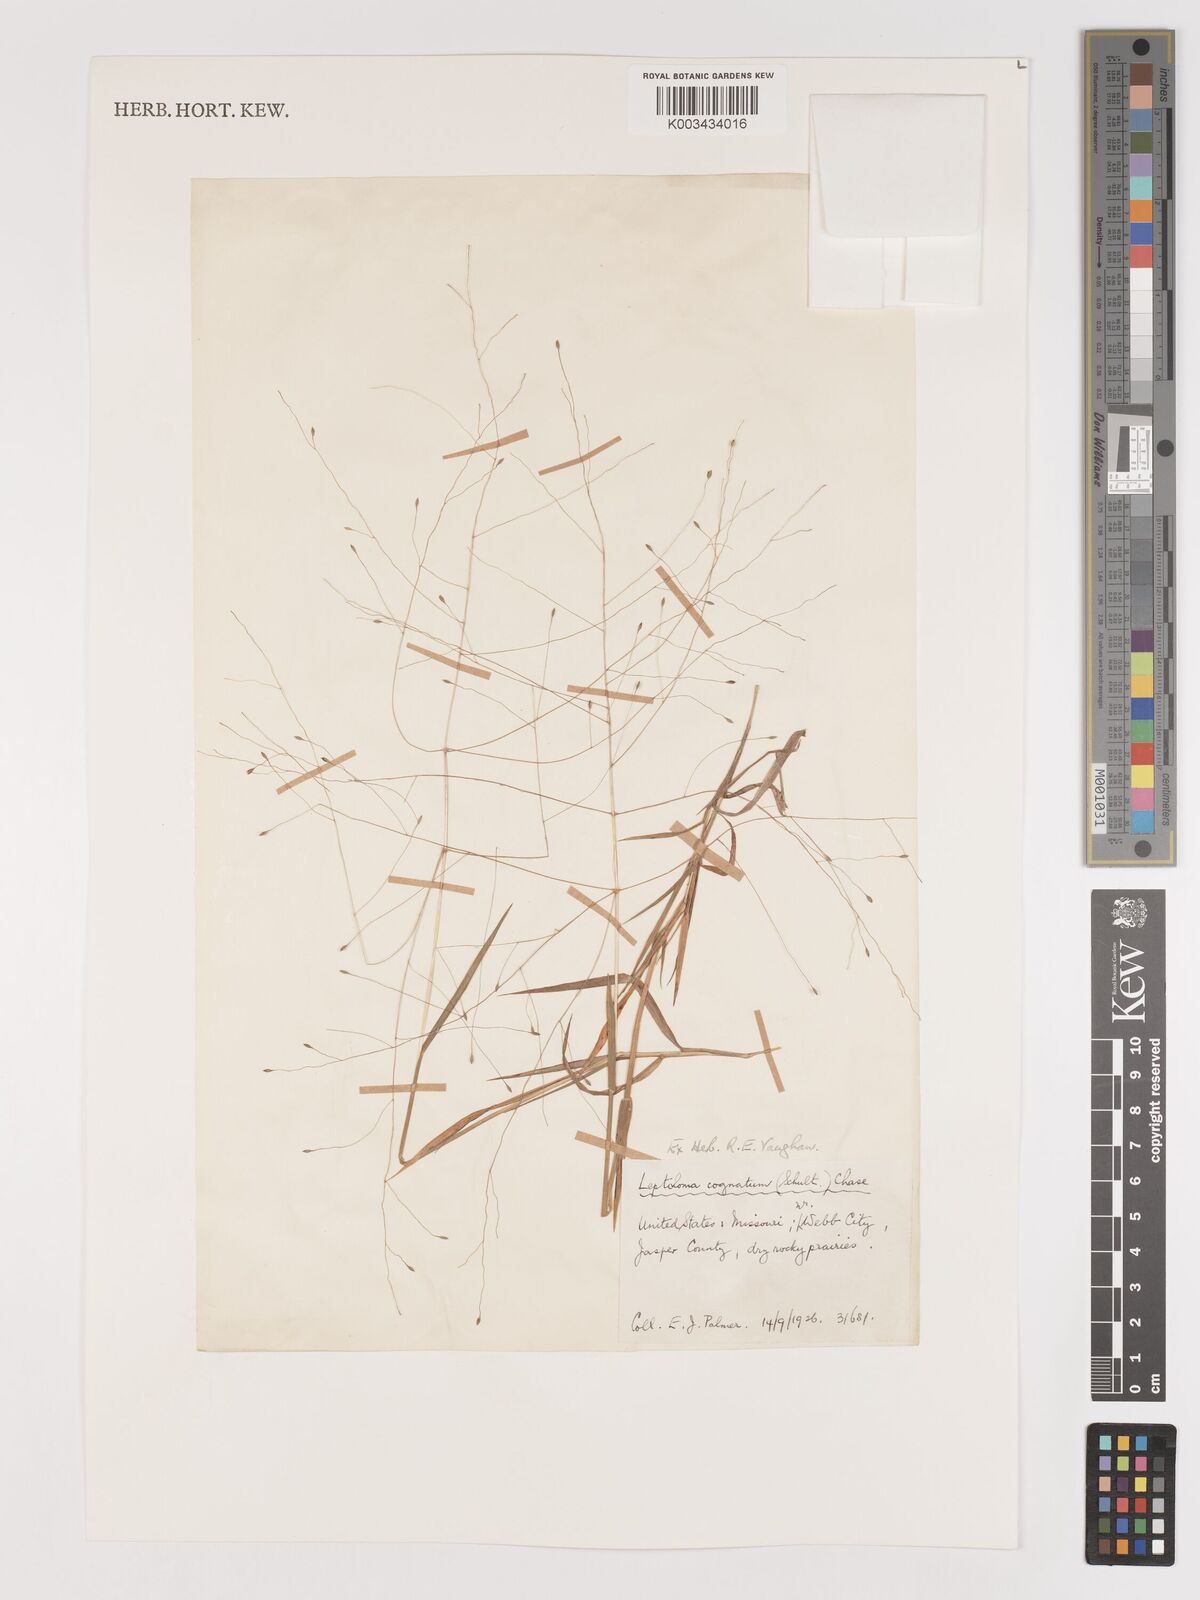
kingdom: Plantae
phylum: Tracheophyta
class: Liliopsida
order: Poales
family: Poaceae
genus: Digitaria
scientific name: Digitaria cognata
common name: Fall witchgrass
